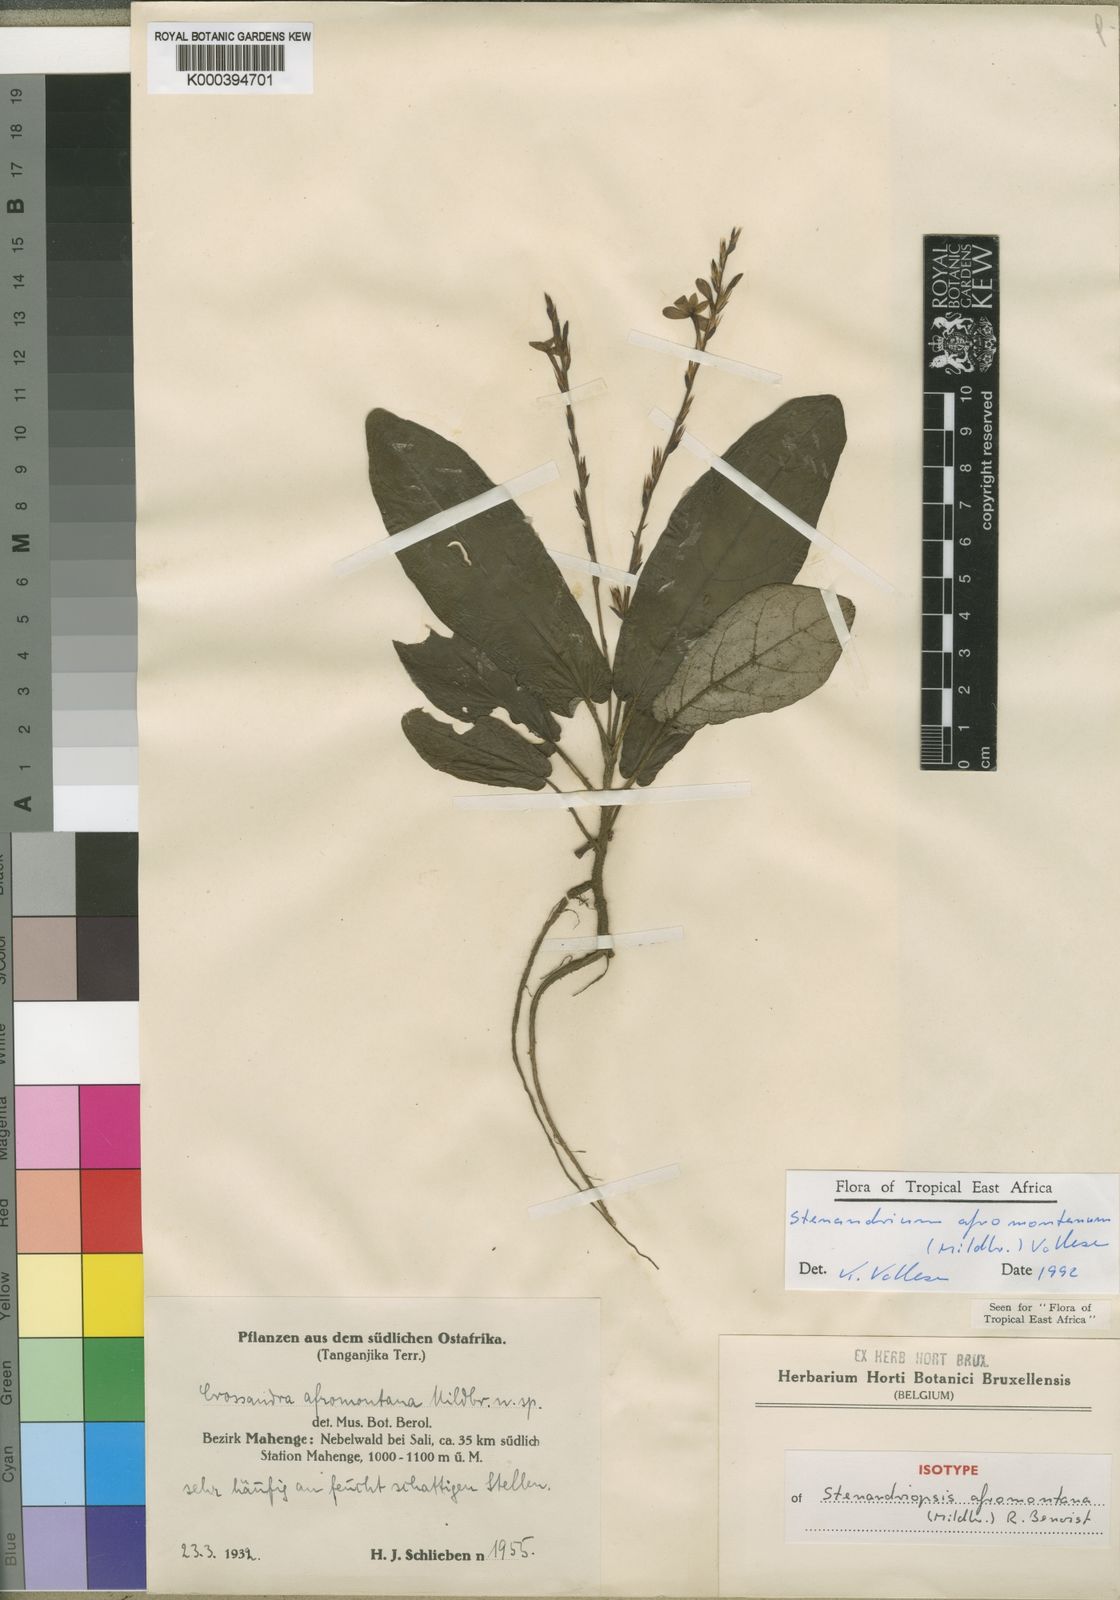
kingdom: Plantae
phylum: Tracheophyta
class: Magnoliopsida
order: Lamiales
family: Acanthaceae
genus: Stenandriopsis
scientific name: Stenandriopsis afromontana
